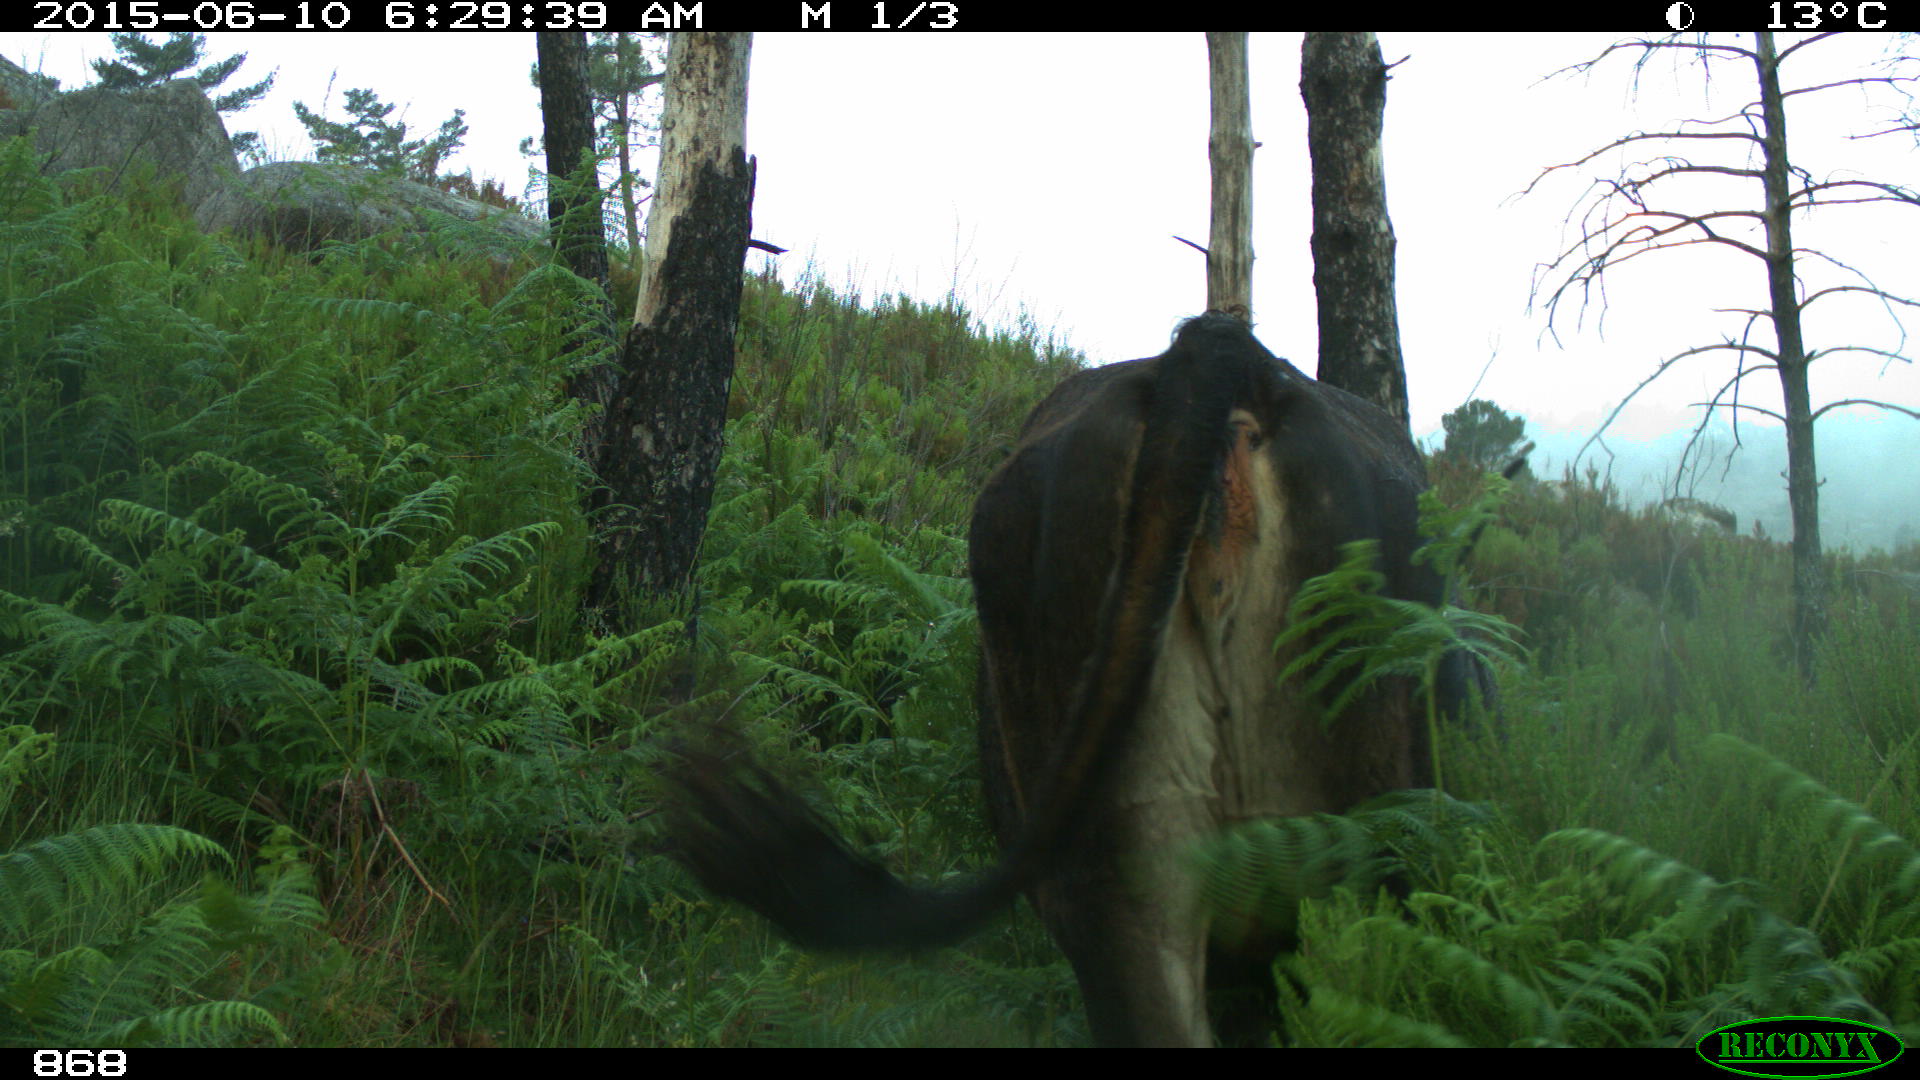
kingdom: Animalia
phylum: Chordata
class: Mammalia
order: Artiodactyla
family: Bovidae
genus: Bos
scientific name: Bos taurus
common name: Domesticated cattle
